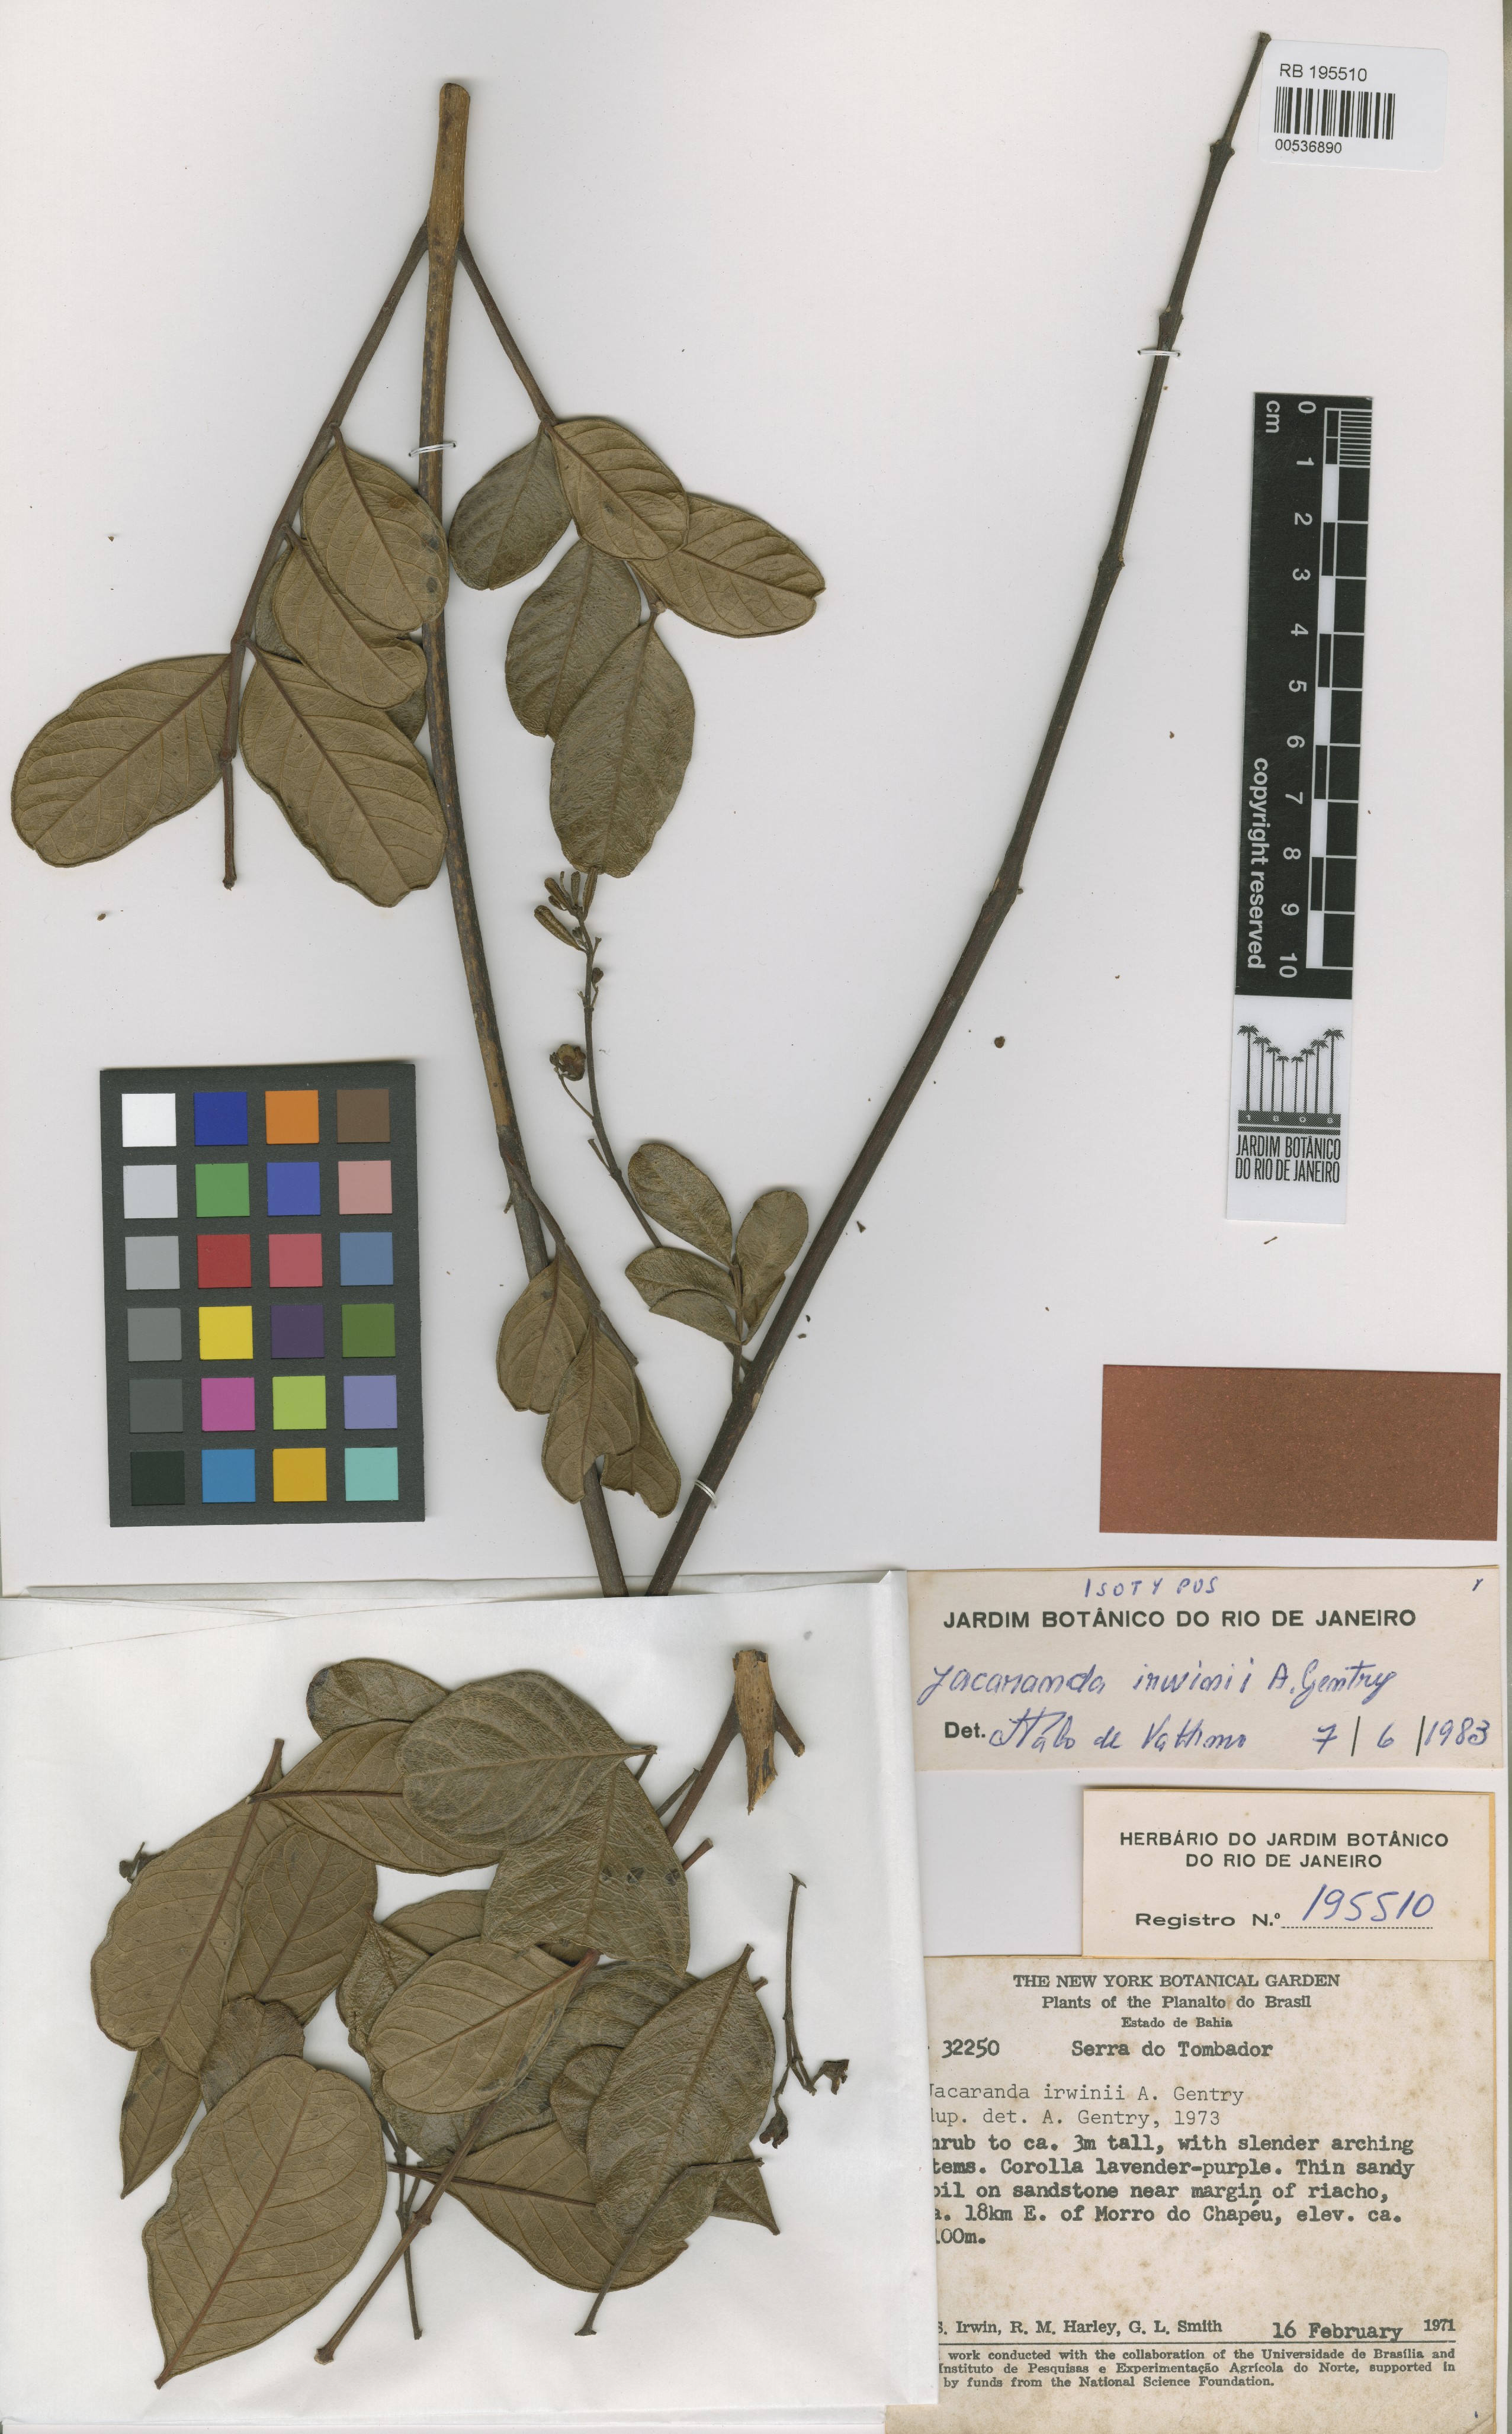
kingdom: Plantae
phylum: Tracheophyta
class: Magnoliopsida
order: Lamiales
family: Bignoniaceae
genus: Jacaranda
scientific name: Jacaranda irwinii
